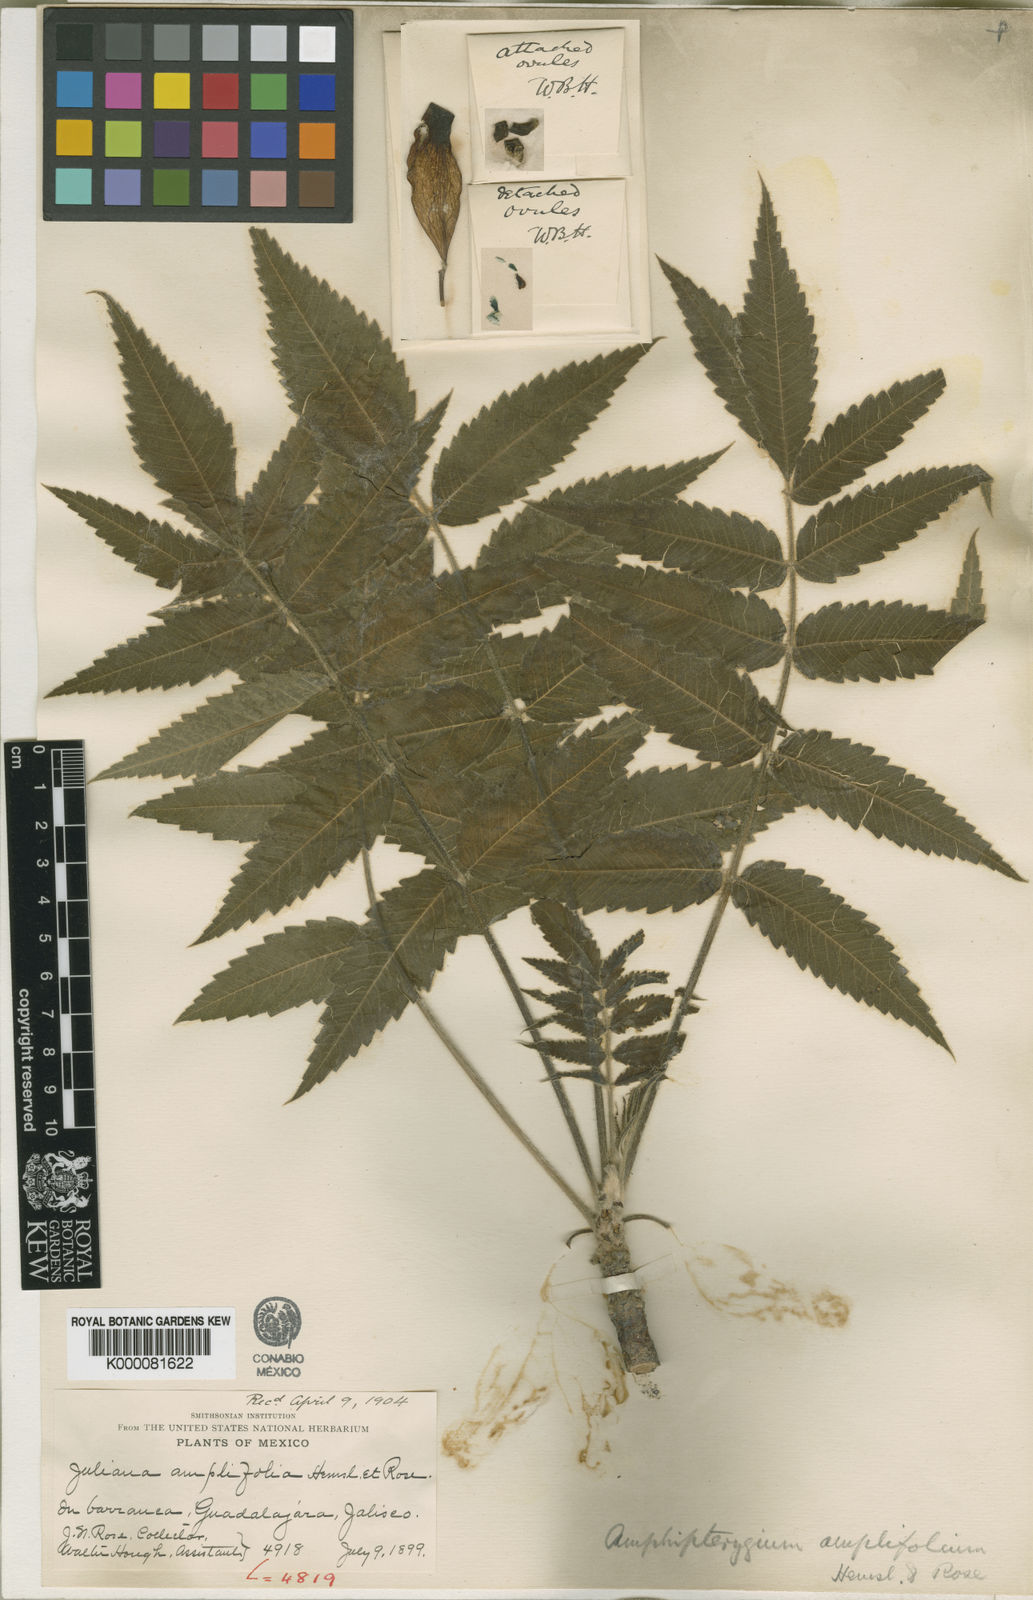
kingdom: Plantae
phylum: Tracheophyta
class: Magnoliopsida
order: Sapindales
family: Anacardiaceae
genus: Amphipterygium
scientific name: Amphipterygium
